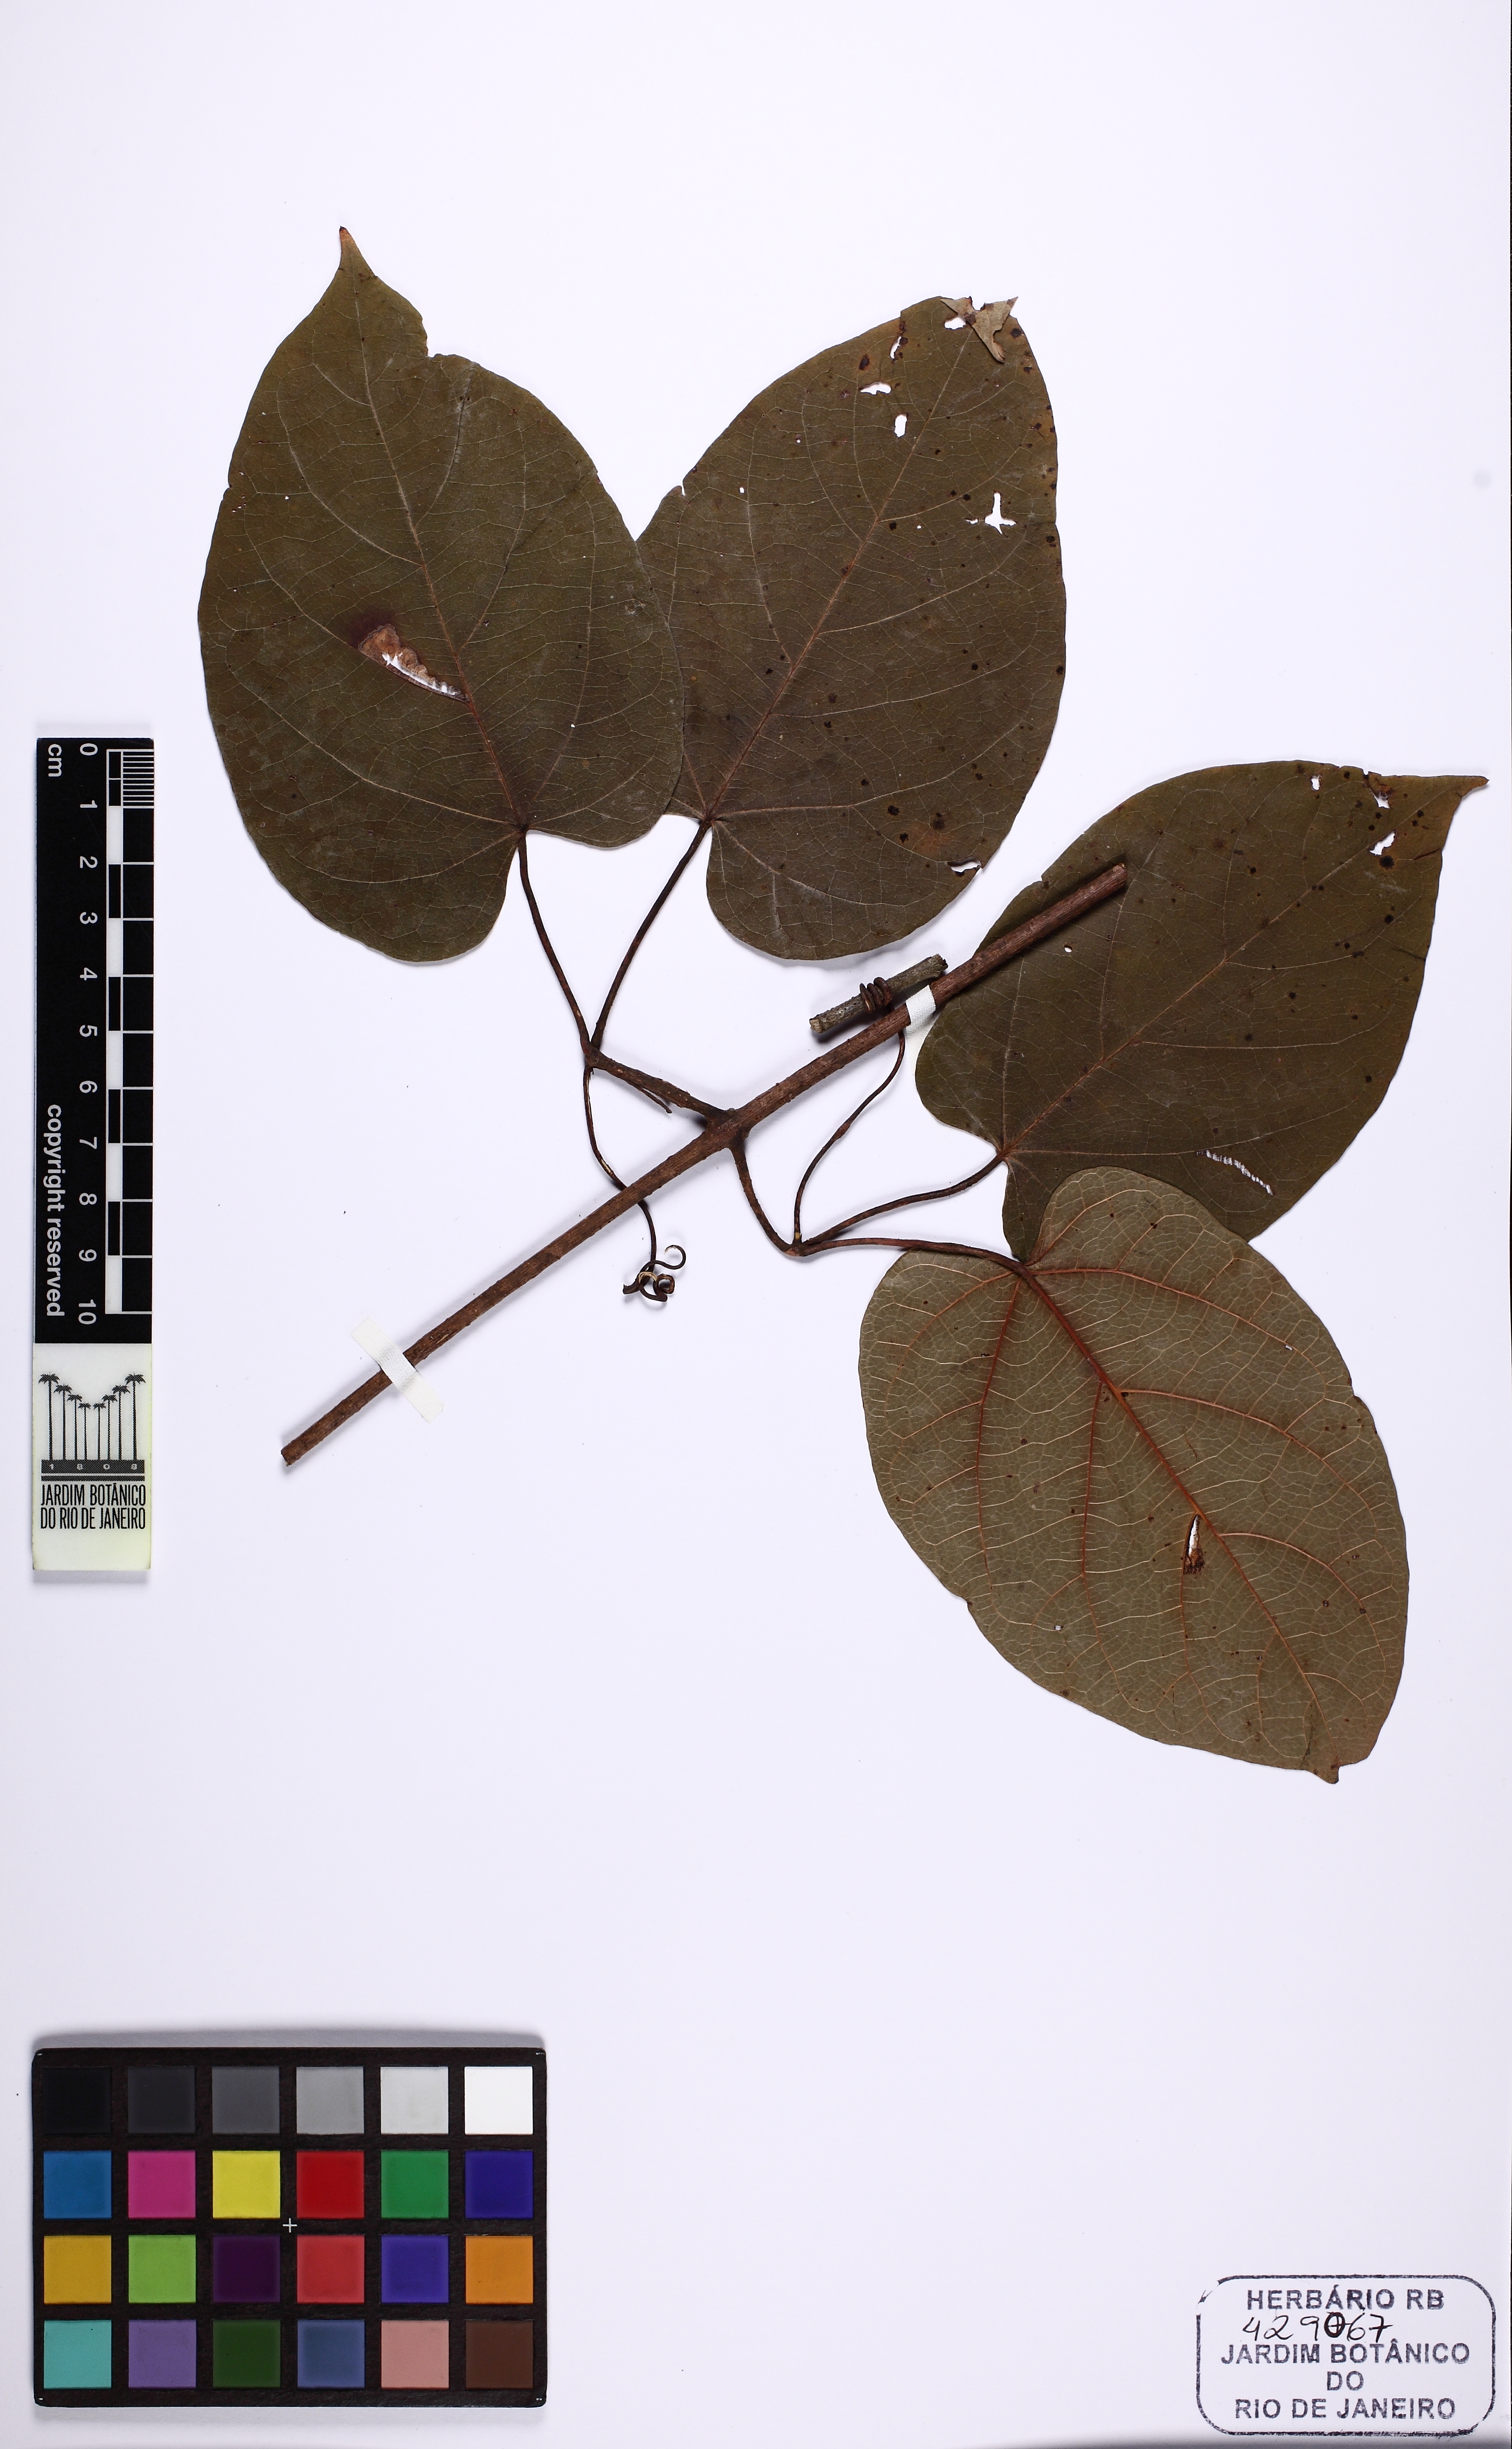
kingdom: Plantae
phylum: Tracheophyta
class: Magnoliopsida
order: Lamiales
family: Bignoniaceae
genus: Lundia
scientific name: Lundia longa
